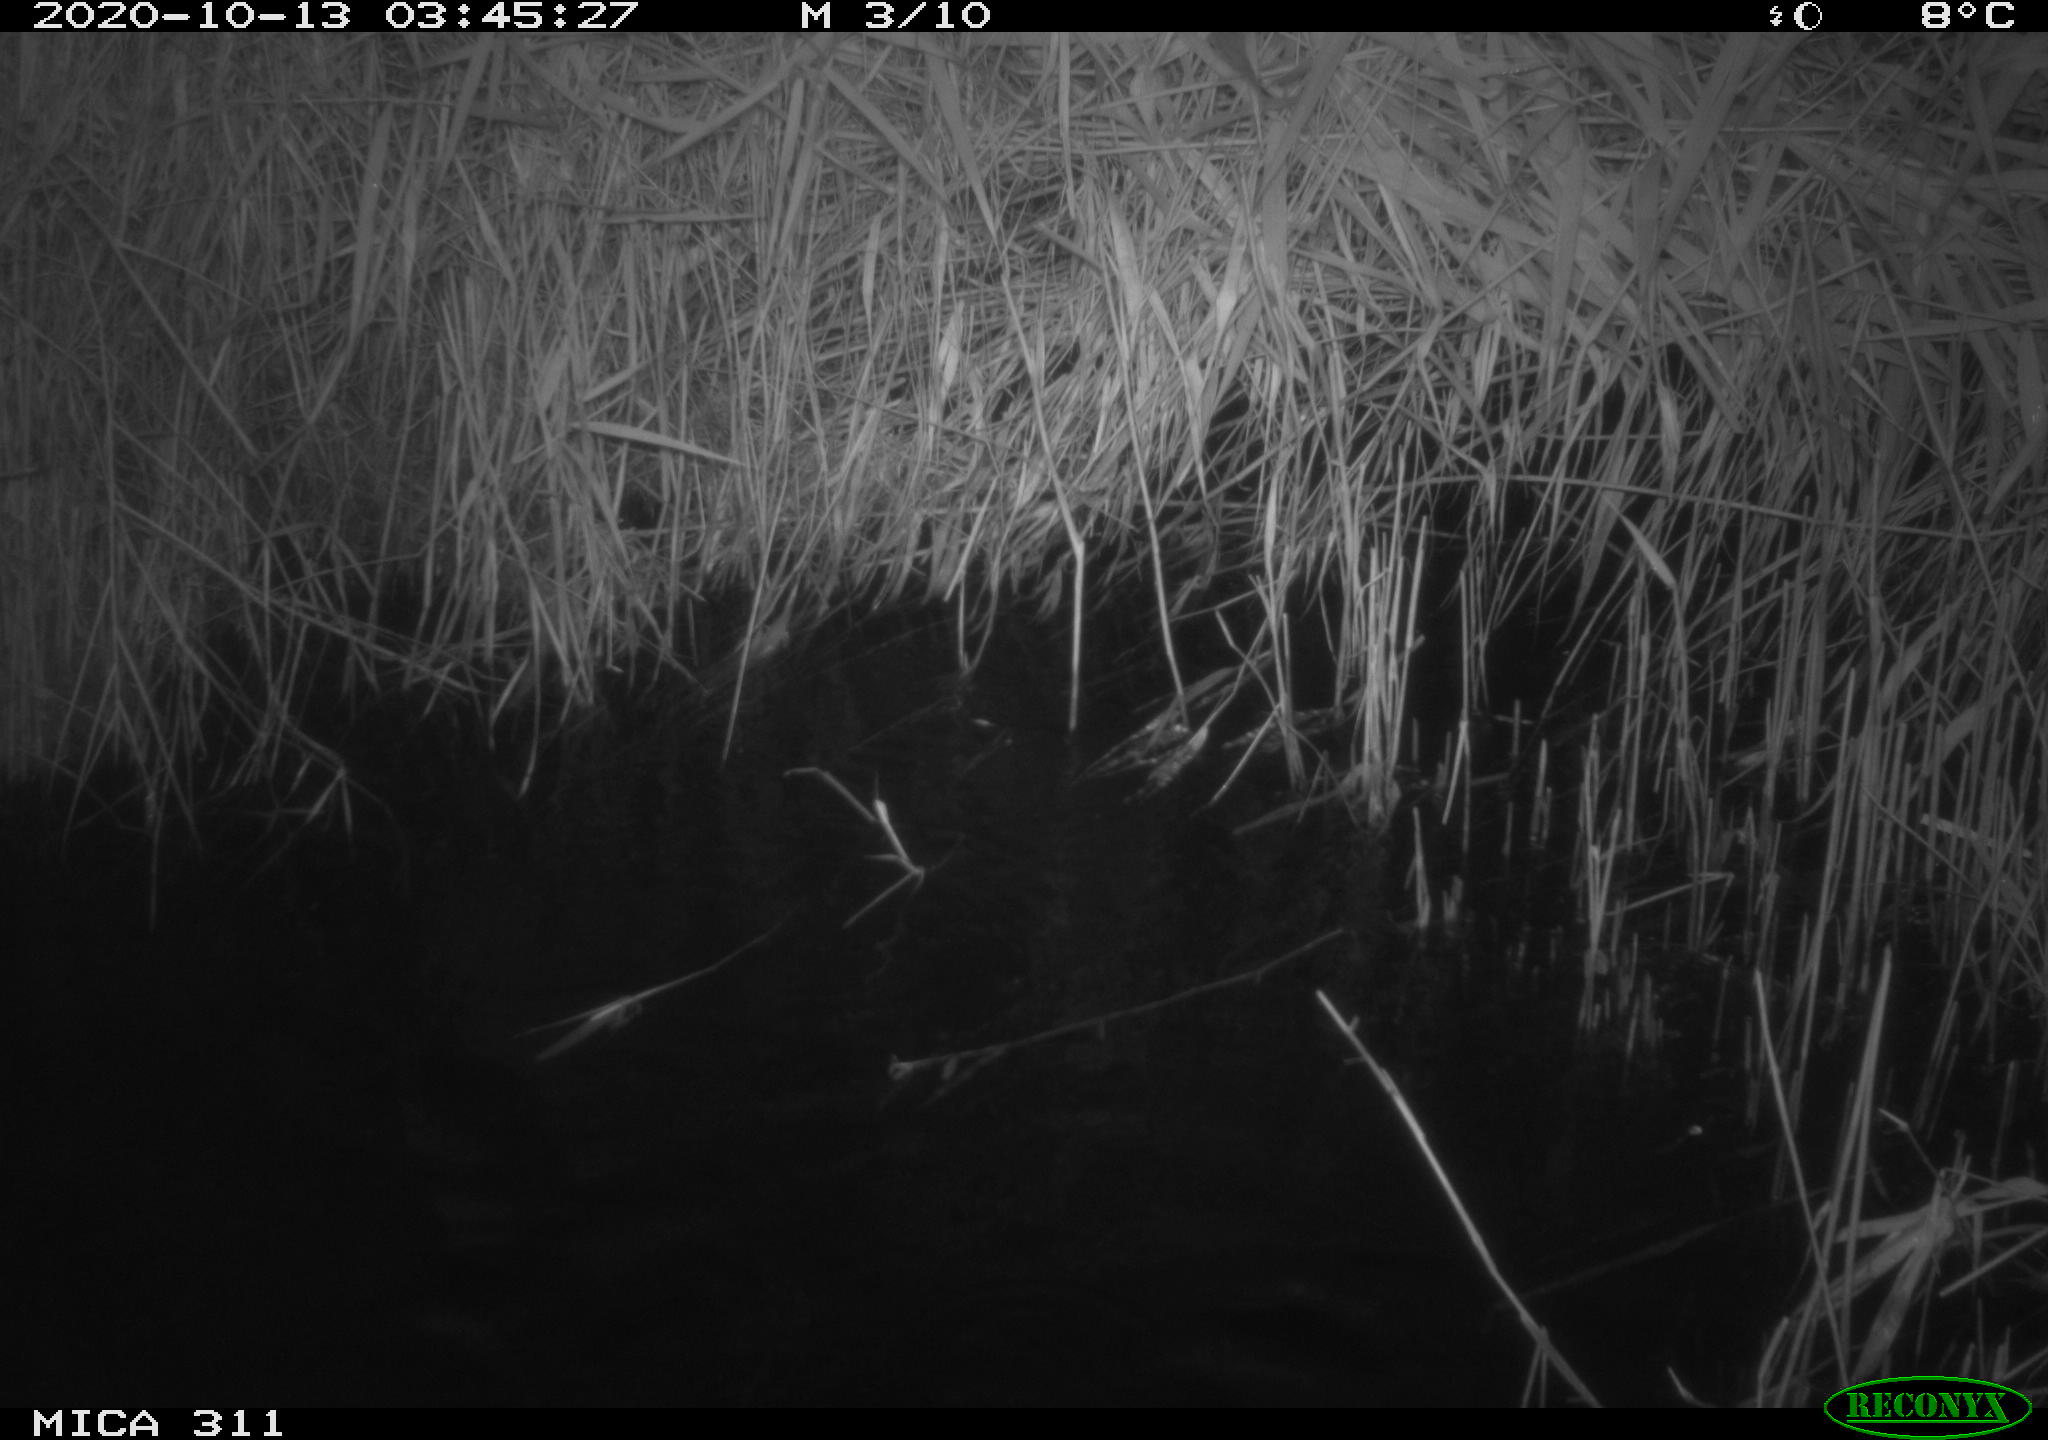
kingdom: Animalia
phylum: Chordata
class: Mammalia
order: Rodentia
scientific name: Rodentia
